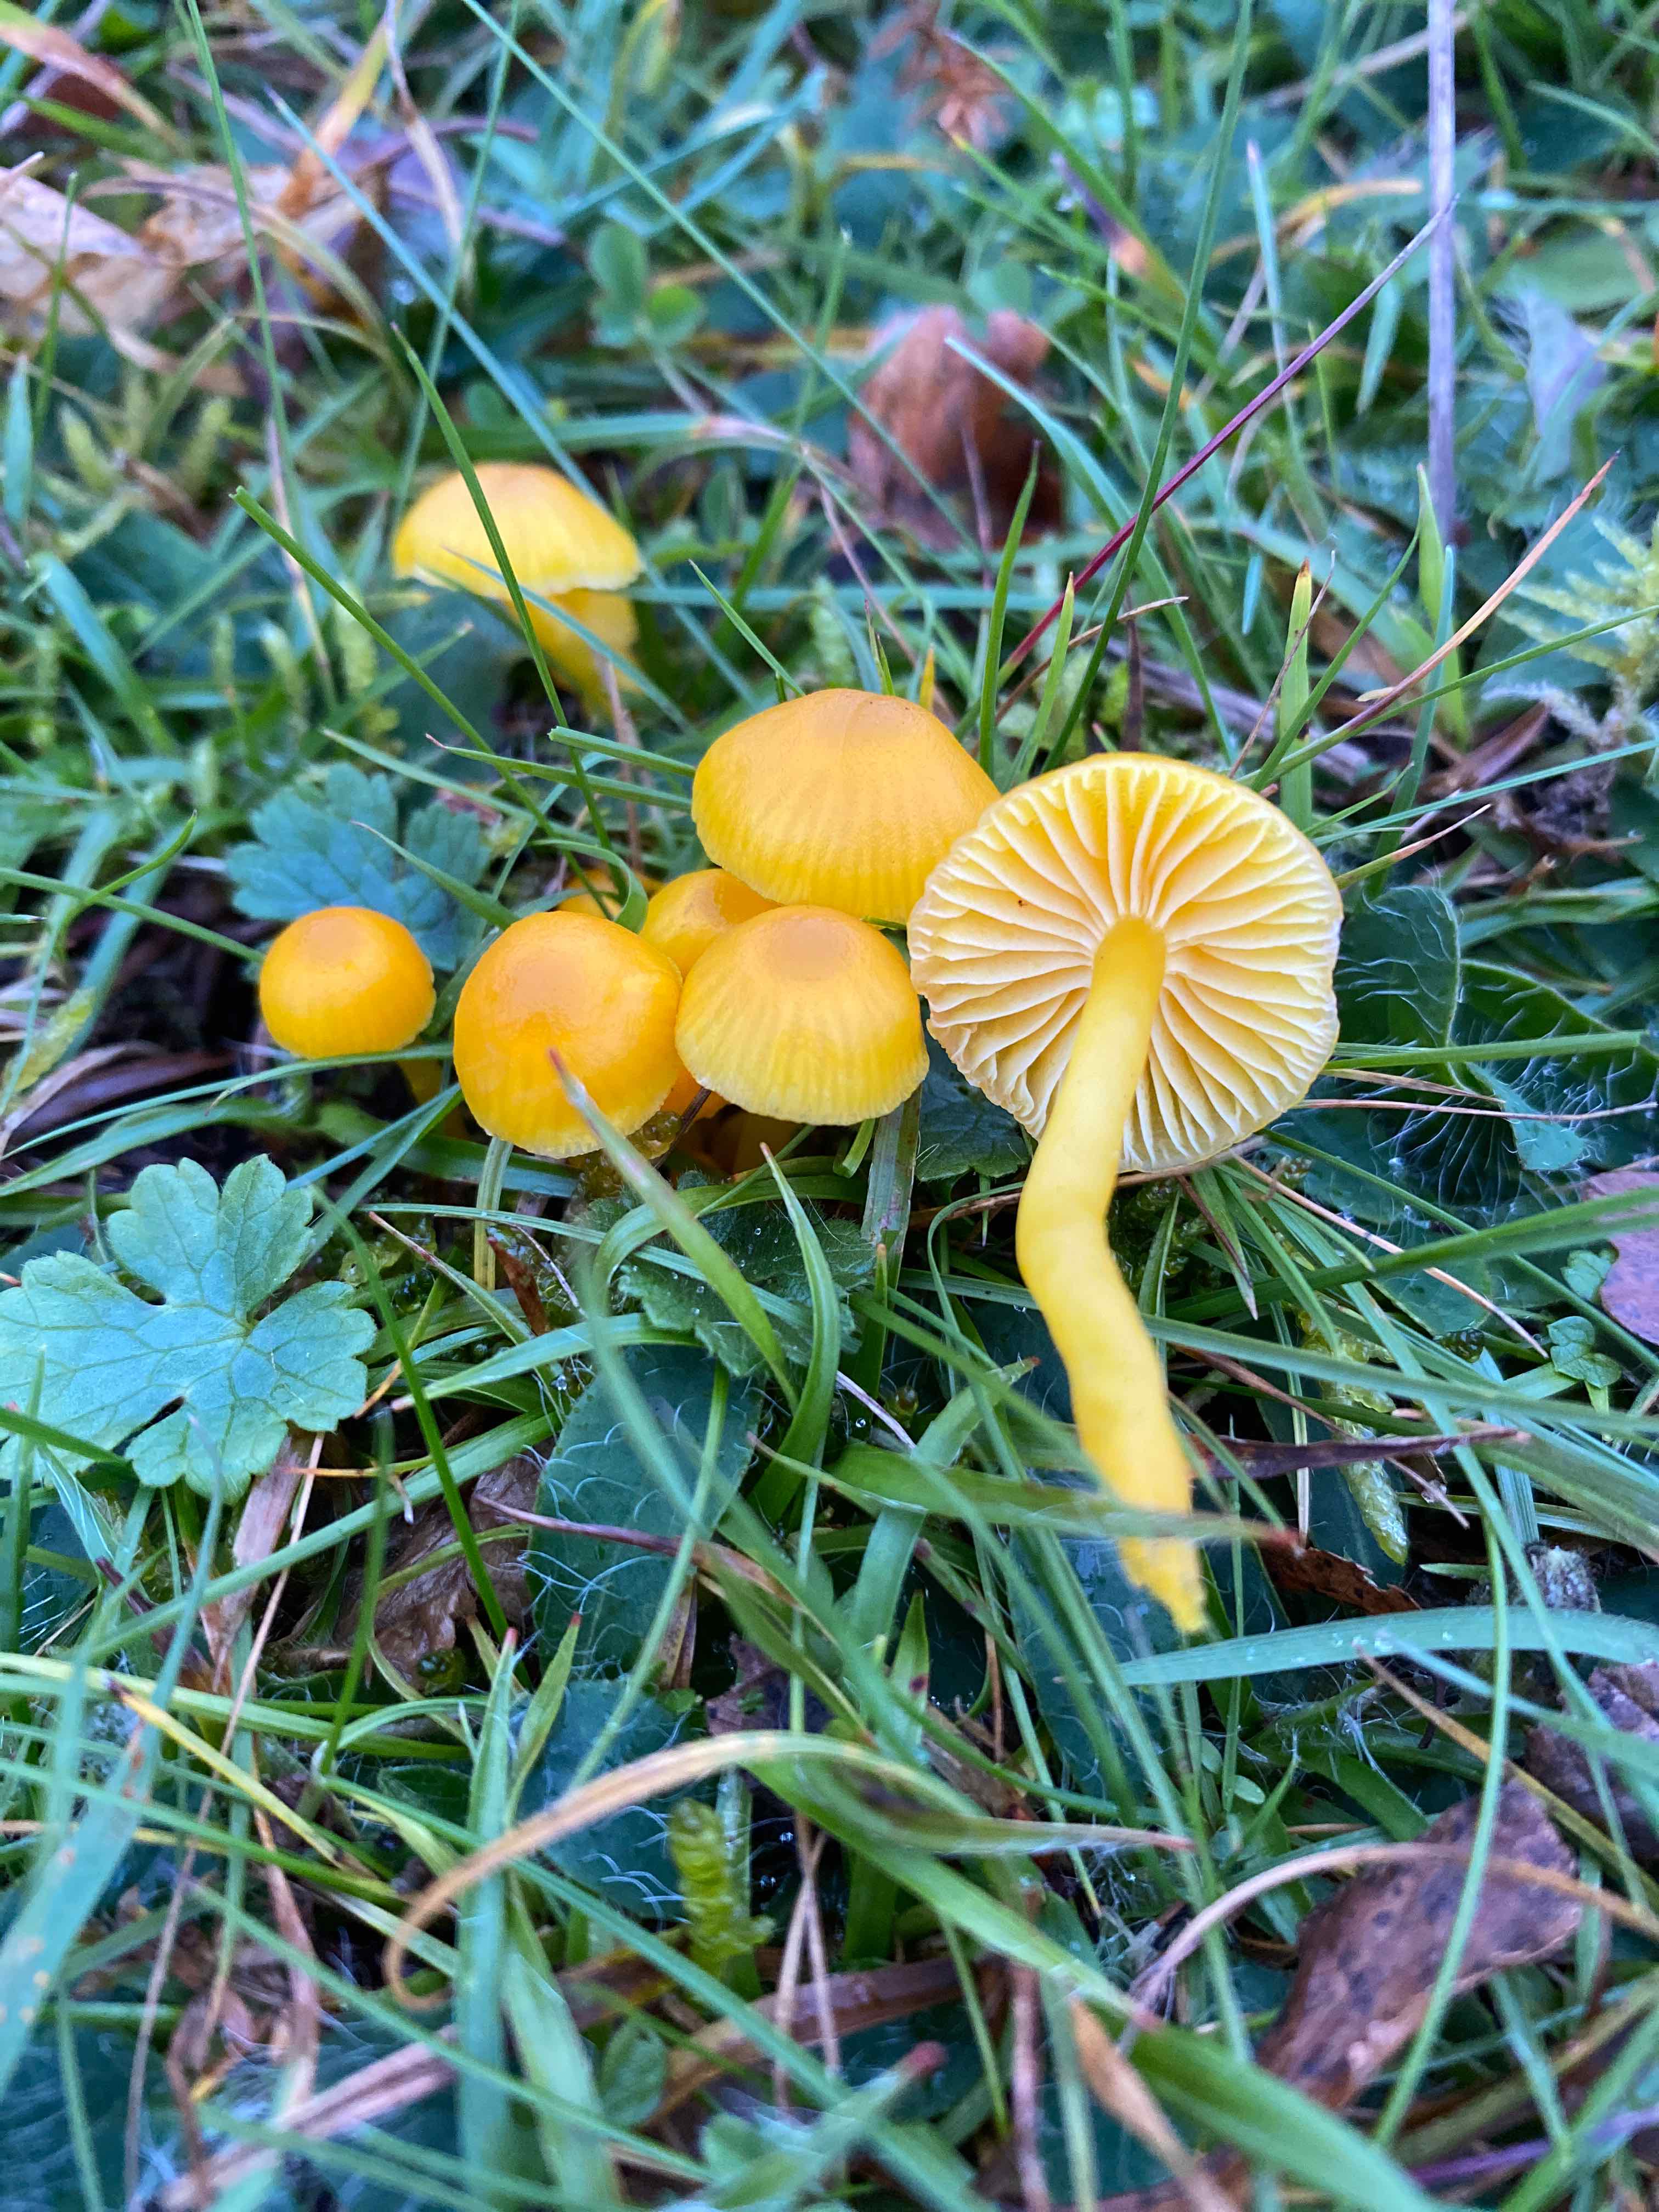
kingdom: Fungi
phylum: Basidiomycota
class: Agaricomycetes
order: Agaricales
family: Hygrophoraceae
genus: Hygrocybe
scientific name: Hygrocybe ceracea
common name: voksgul vokshat
